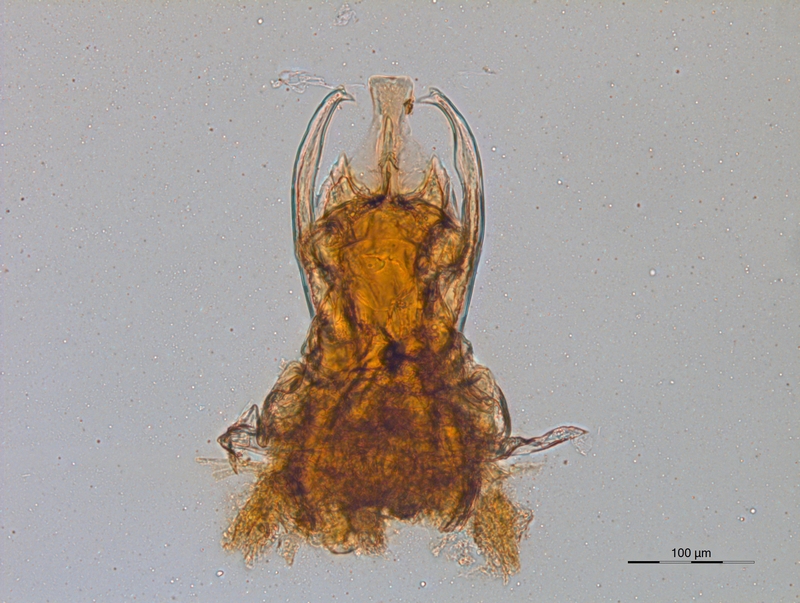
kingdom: Animalia
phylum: Arthropoda
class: Diplopoda
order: Chordeumatida
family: Trachygonidae
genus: Halleinosoma
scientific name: Halleinosoma noricum
